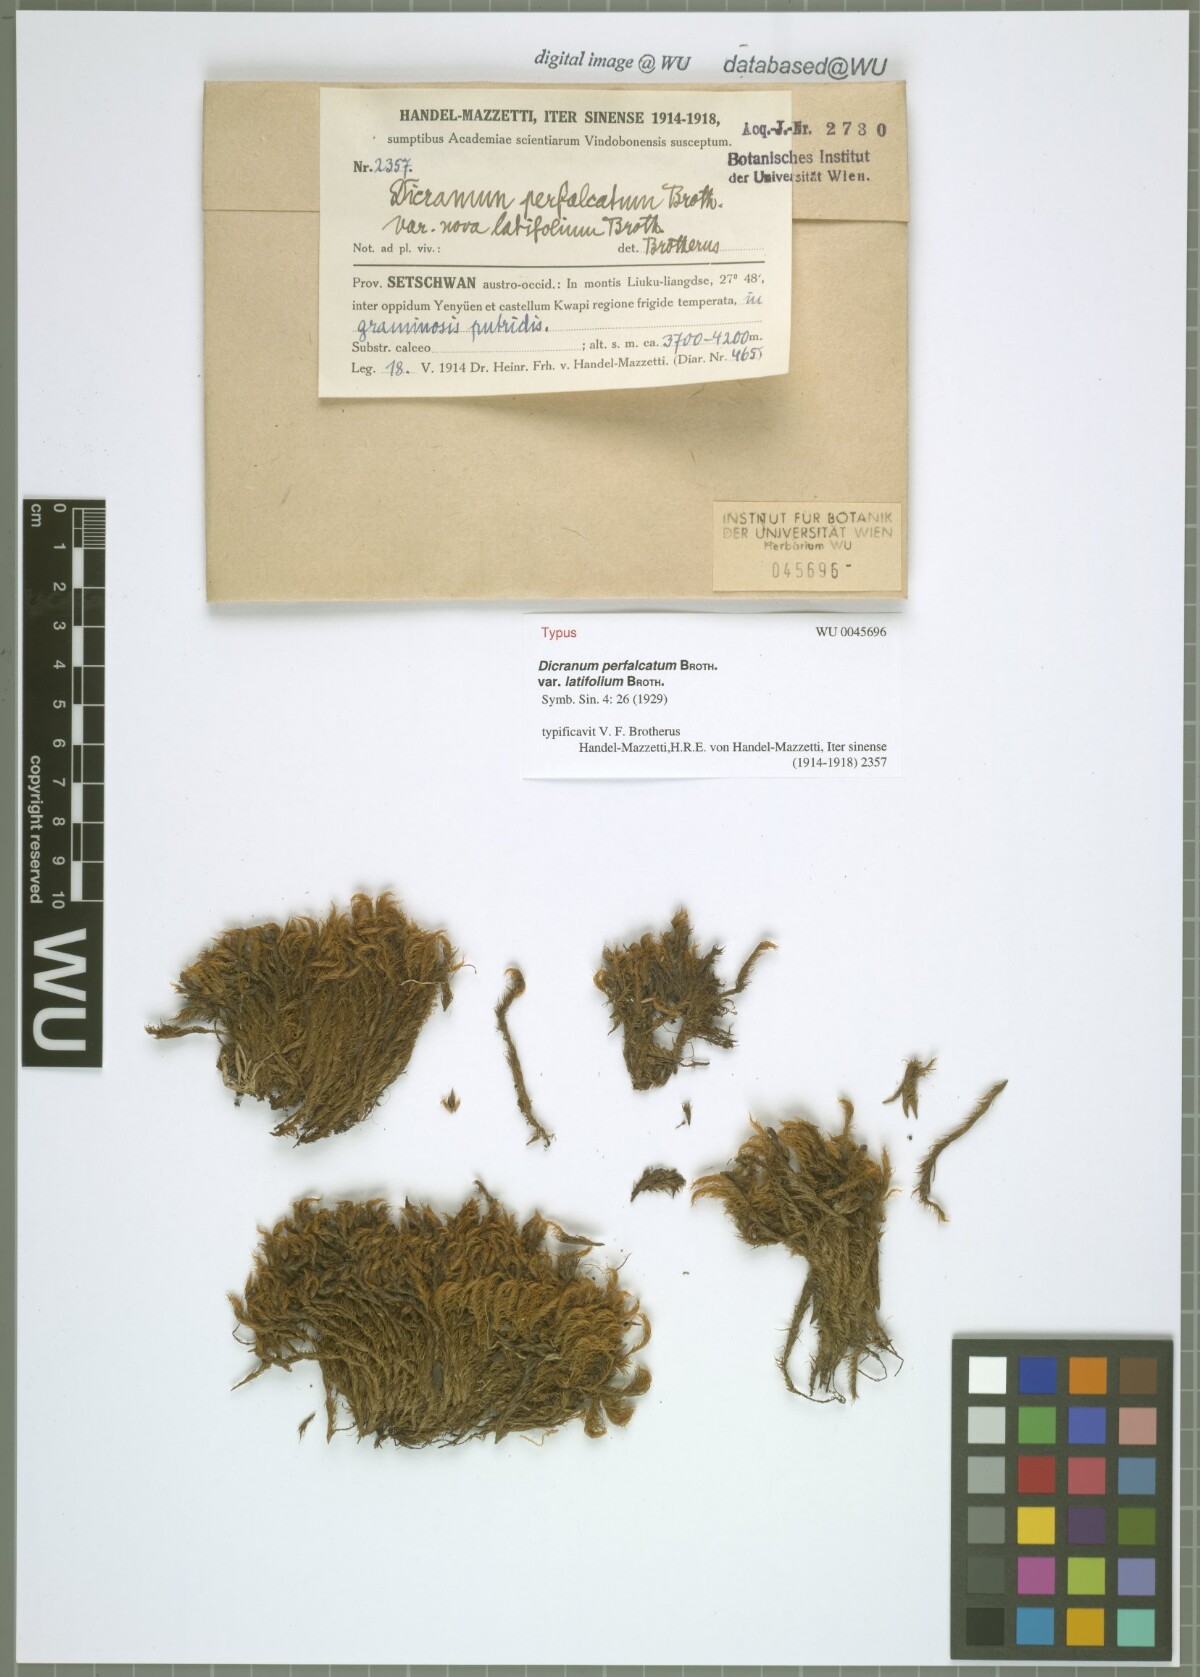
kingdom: Plantae
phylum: Bryophyta
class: Bryopsida
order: Dicranales
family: Dicranaceae
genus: Dicranum
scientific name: Dicranum drummondii
